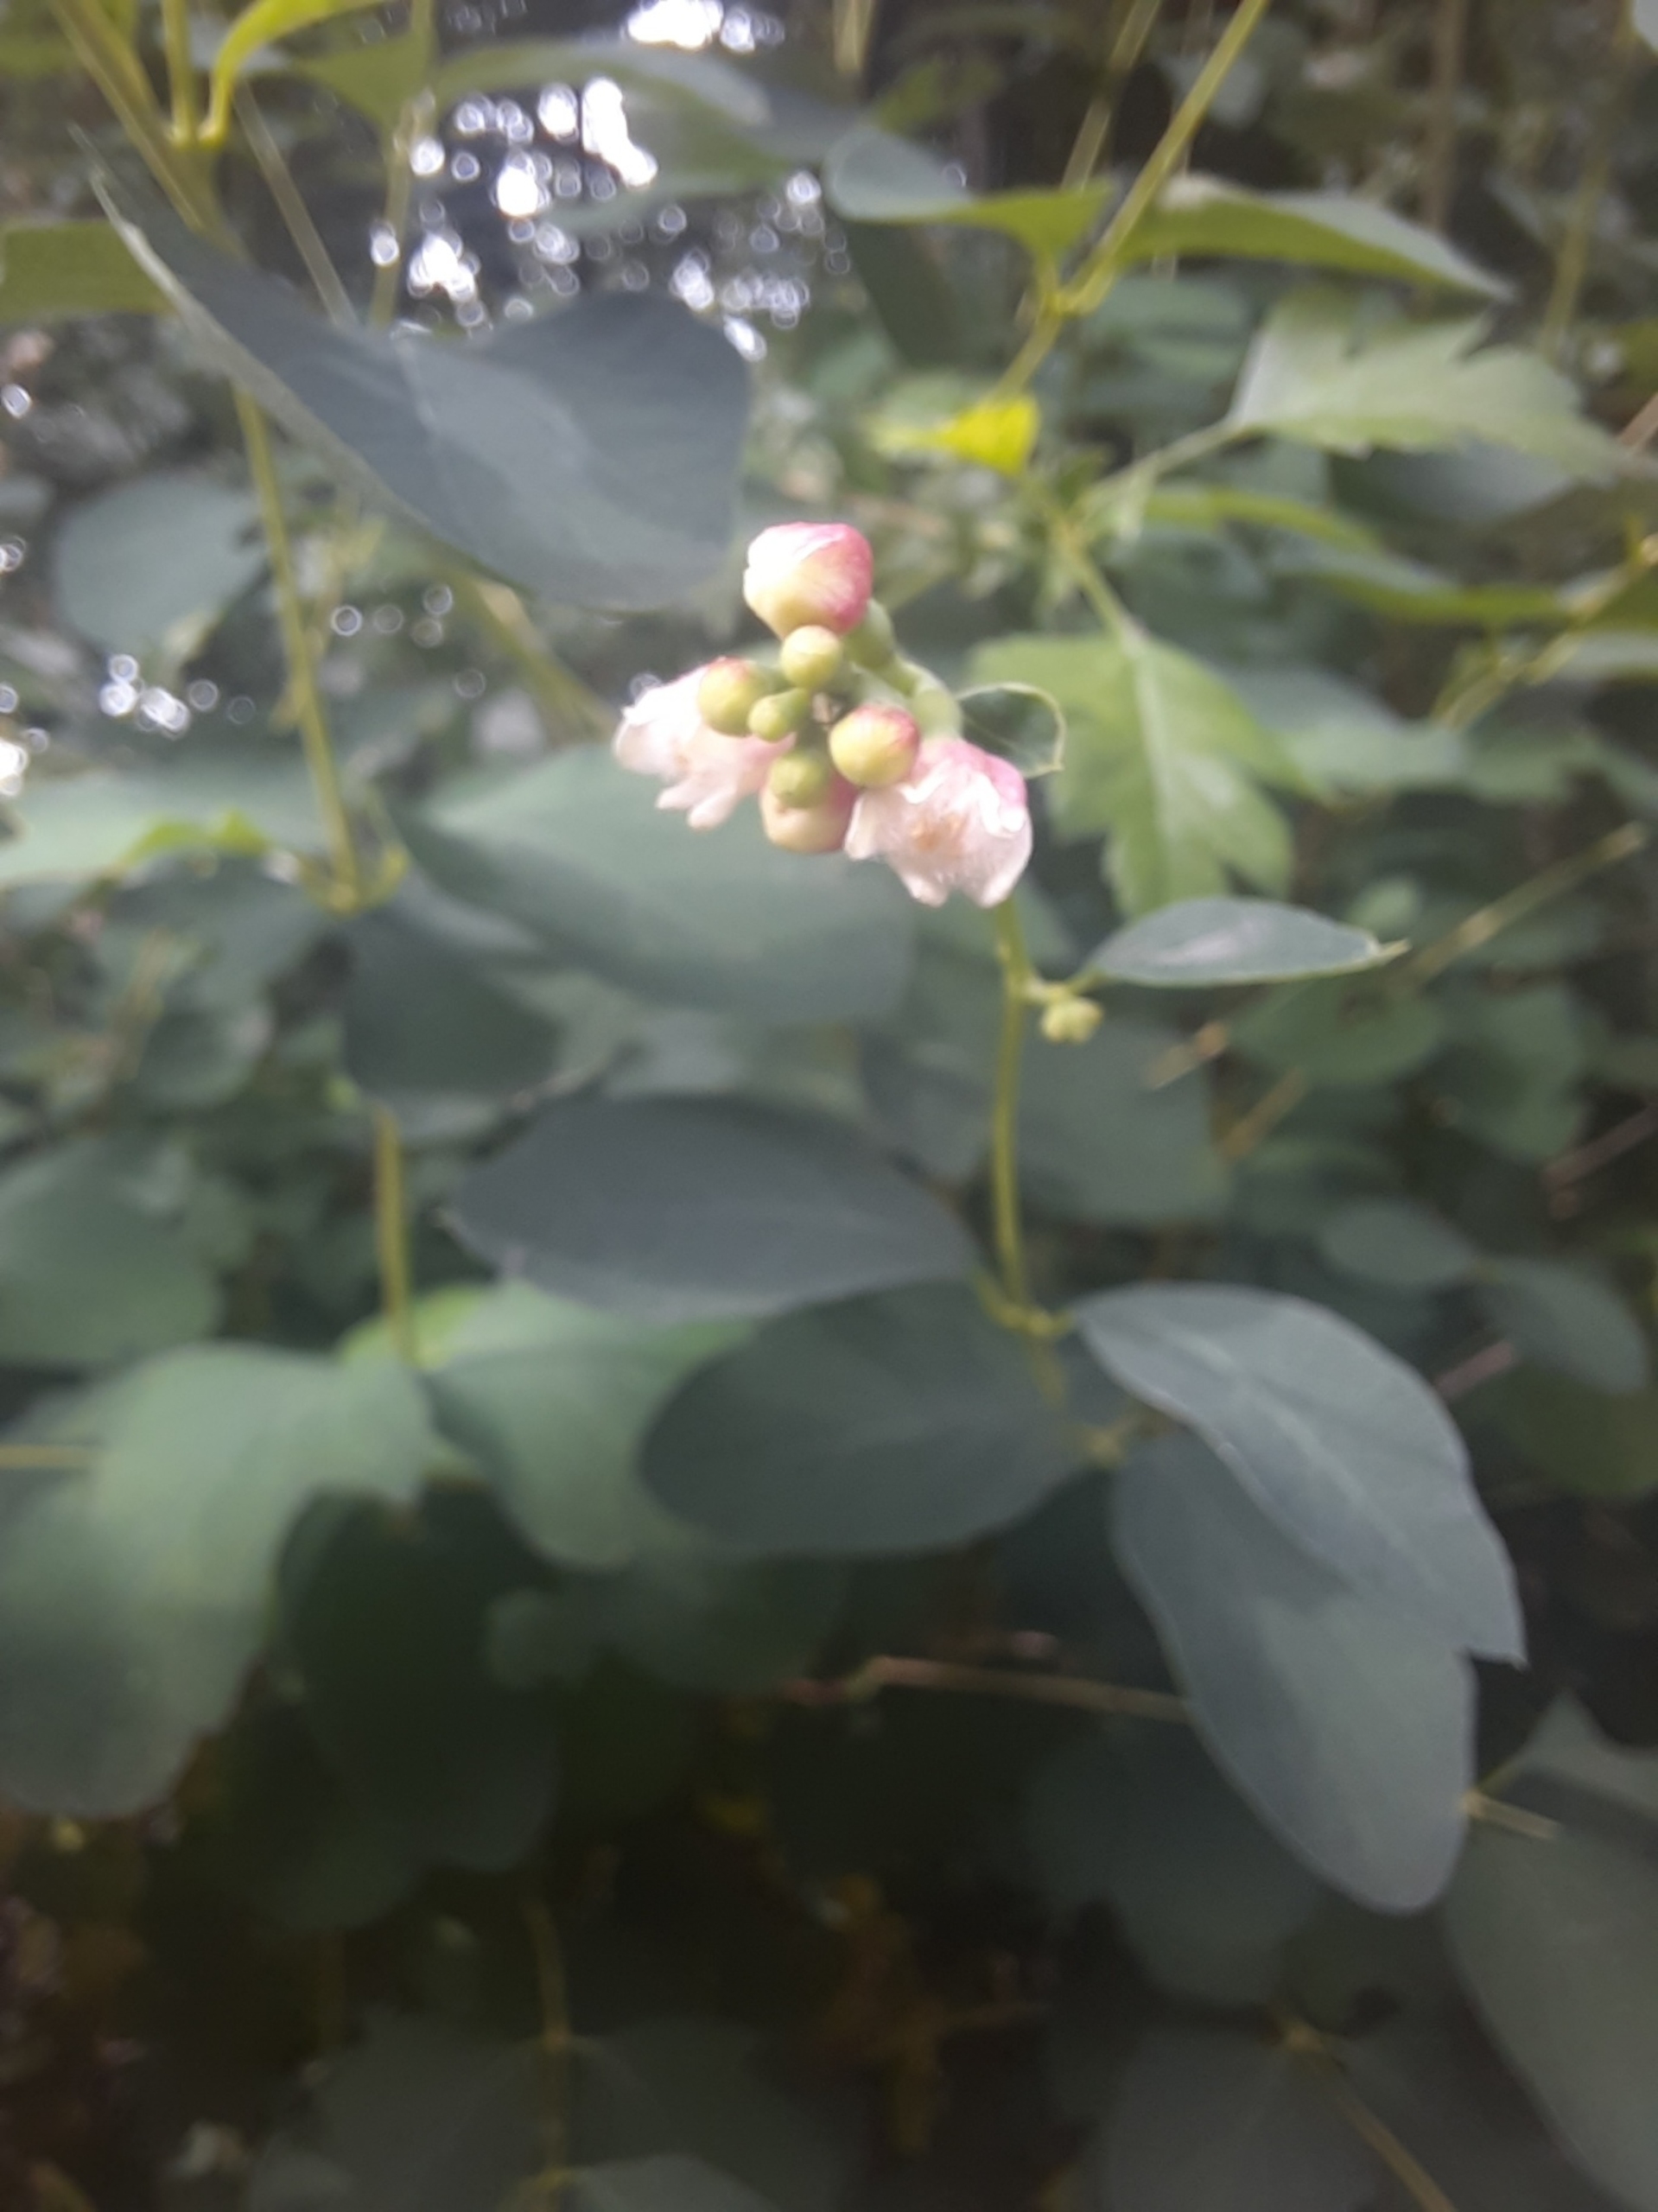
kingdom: Plantae
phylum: Tracheophyta
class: Magnoliopsida
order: Dipsacales
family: Caprifoliaceae
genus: Symphoricarpos
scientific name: Symphoricarpos albus
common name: Almindelig snebær
